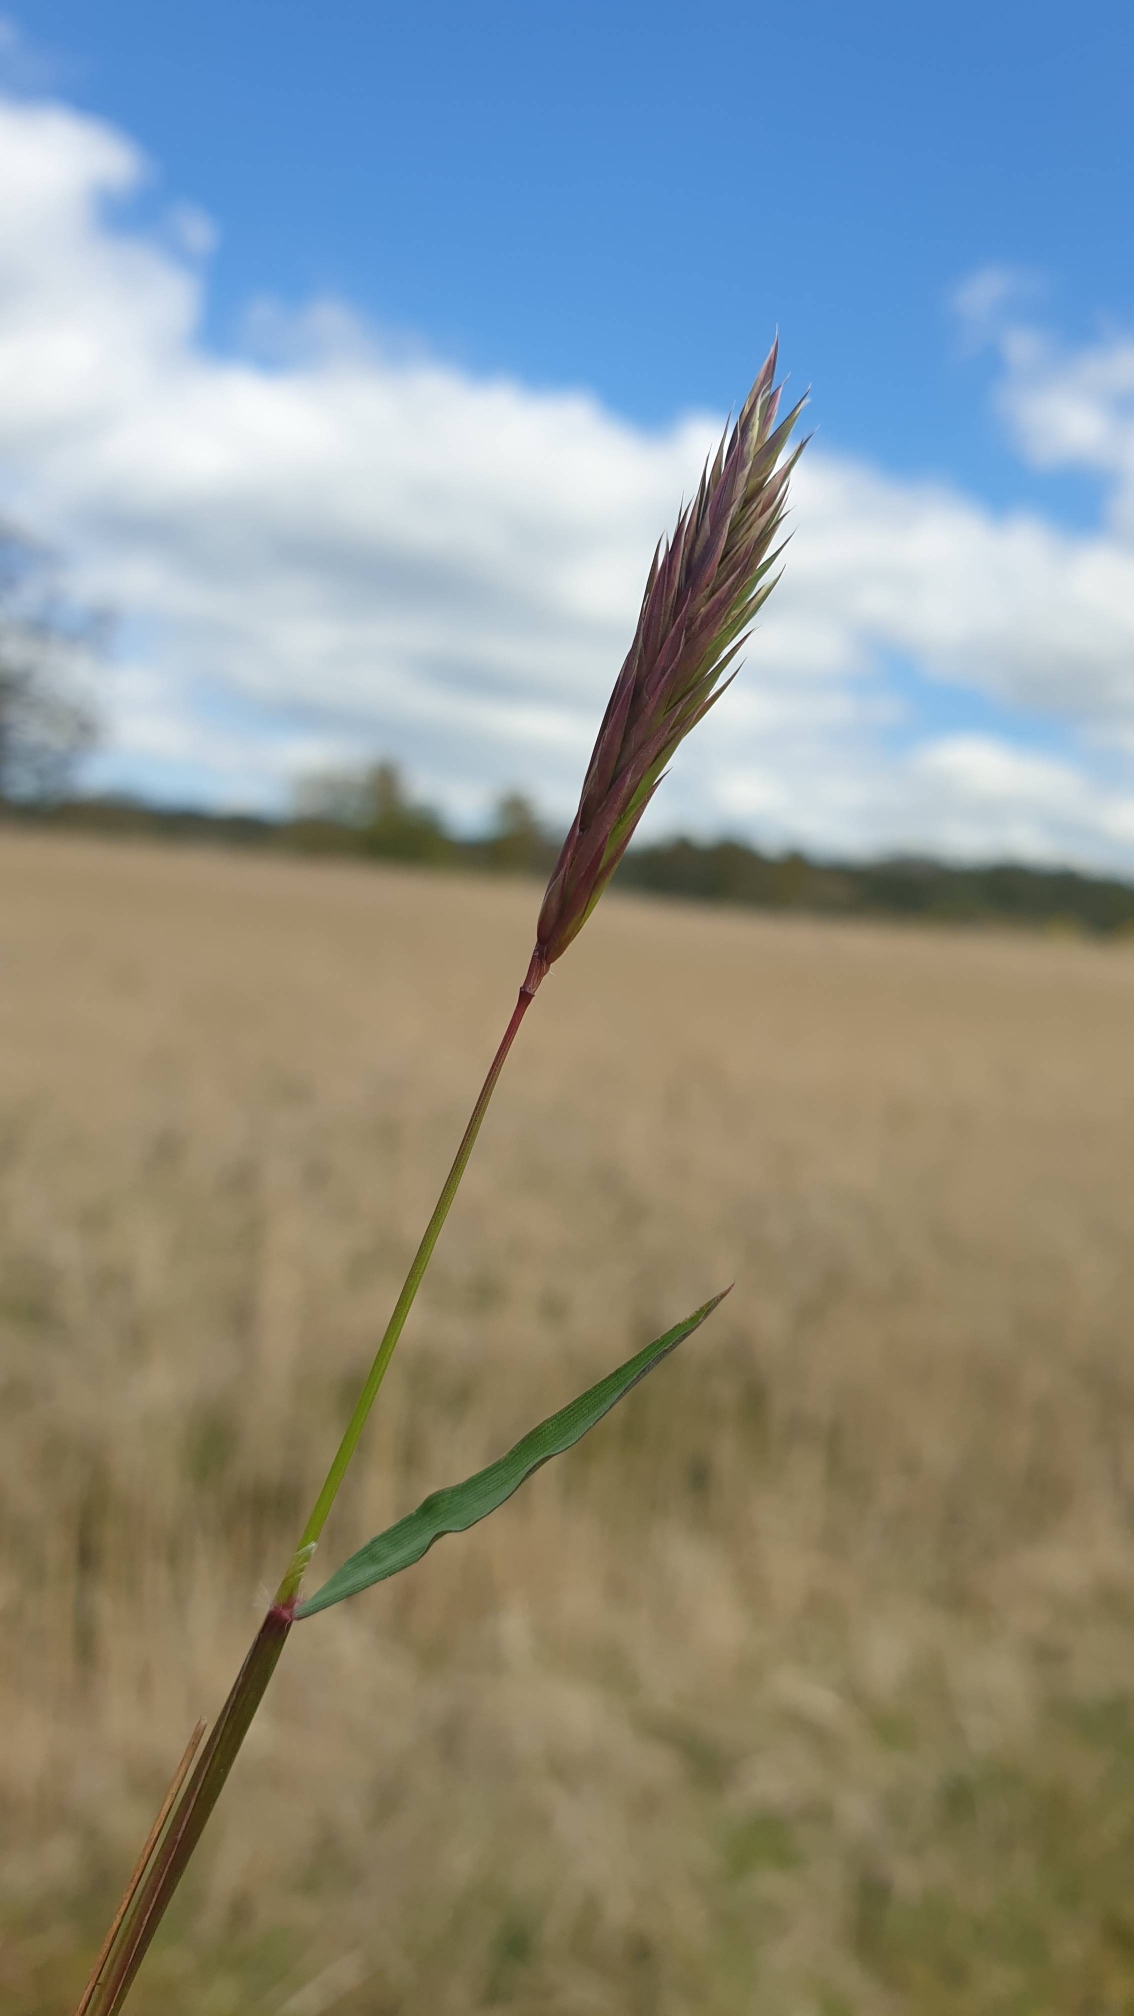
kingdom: Plantae
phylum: Tracheophyta
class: Liliopsida
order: Poales
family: Poaceae
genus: Anthoxanthum
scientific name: Anthoxanthum odoratum
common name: Vellugtende gulaks
